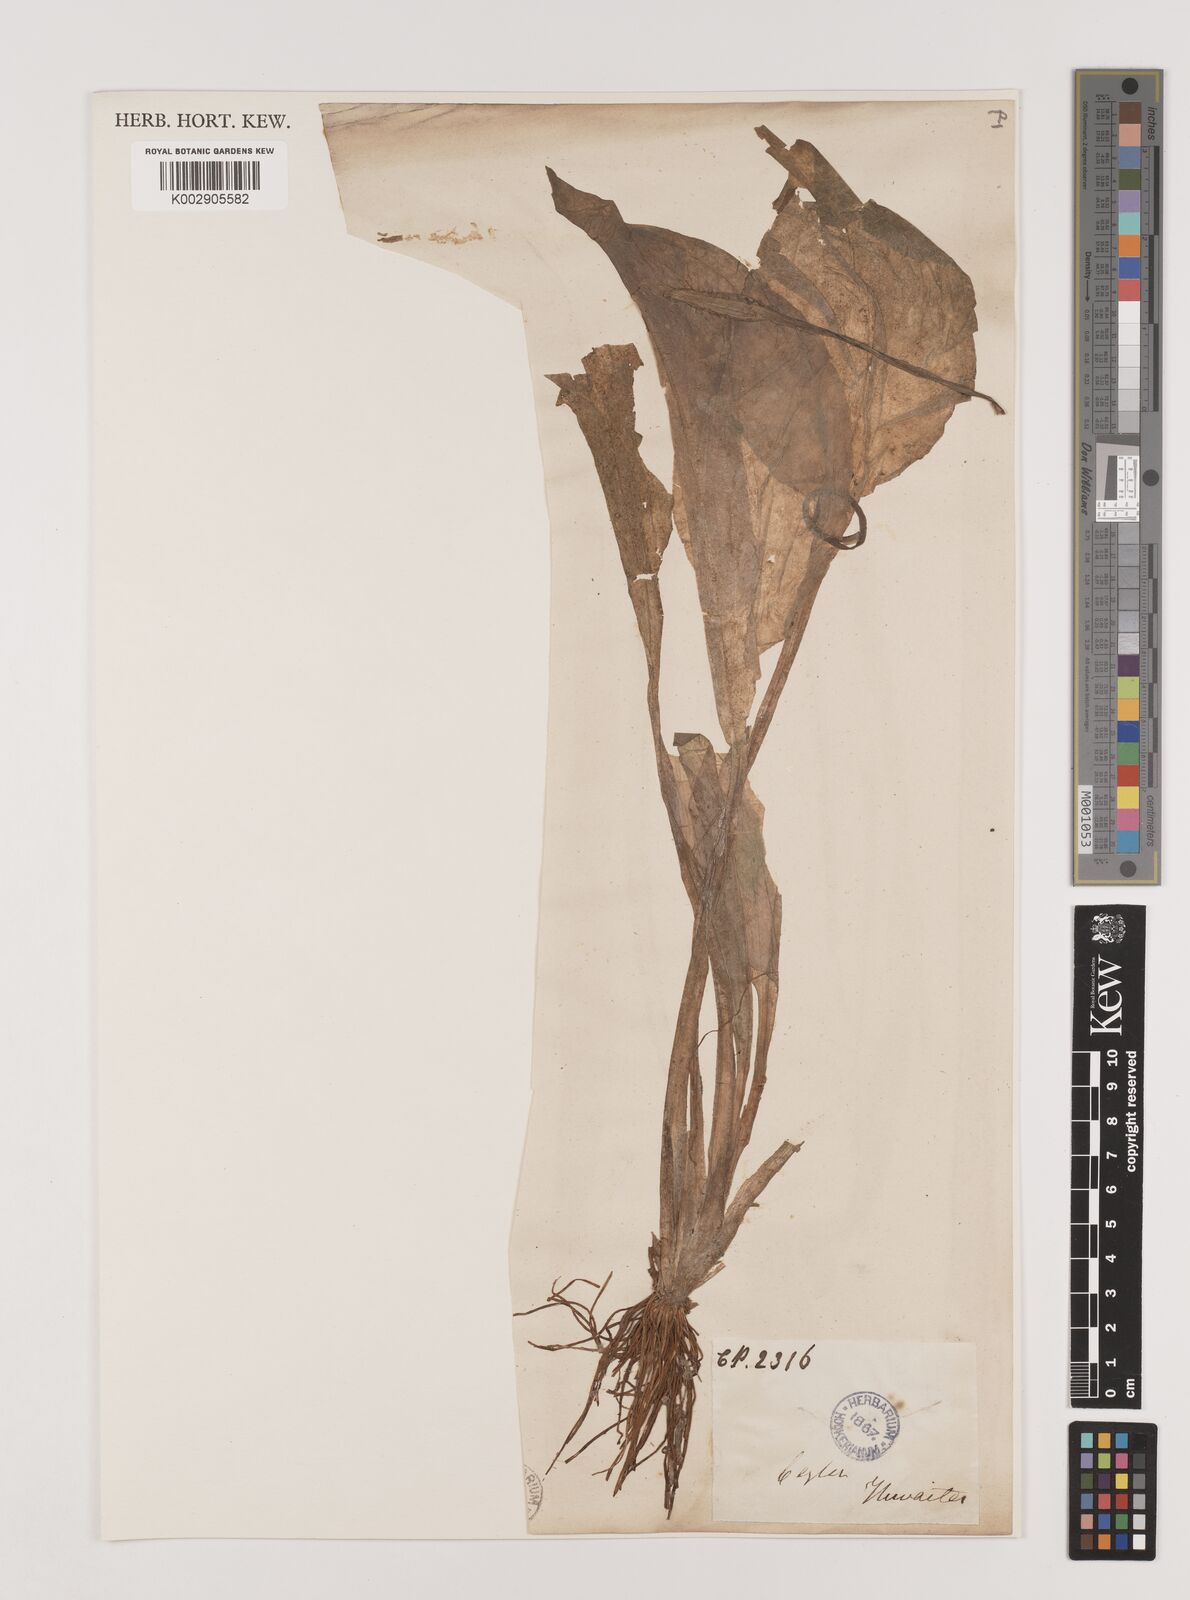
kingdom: Plantae
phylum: Tracheophyta
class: Liliopsida
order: Alismatales
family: Hydrocharitaceae
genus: Ottelia
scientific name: Ottelia alismoides
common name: Duck-lettuce
